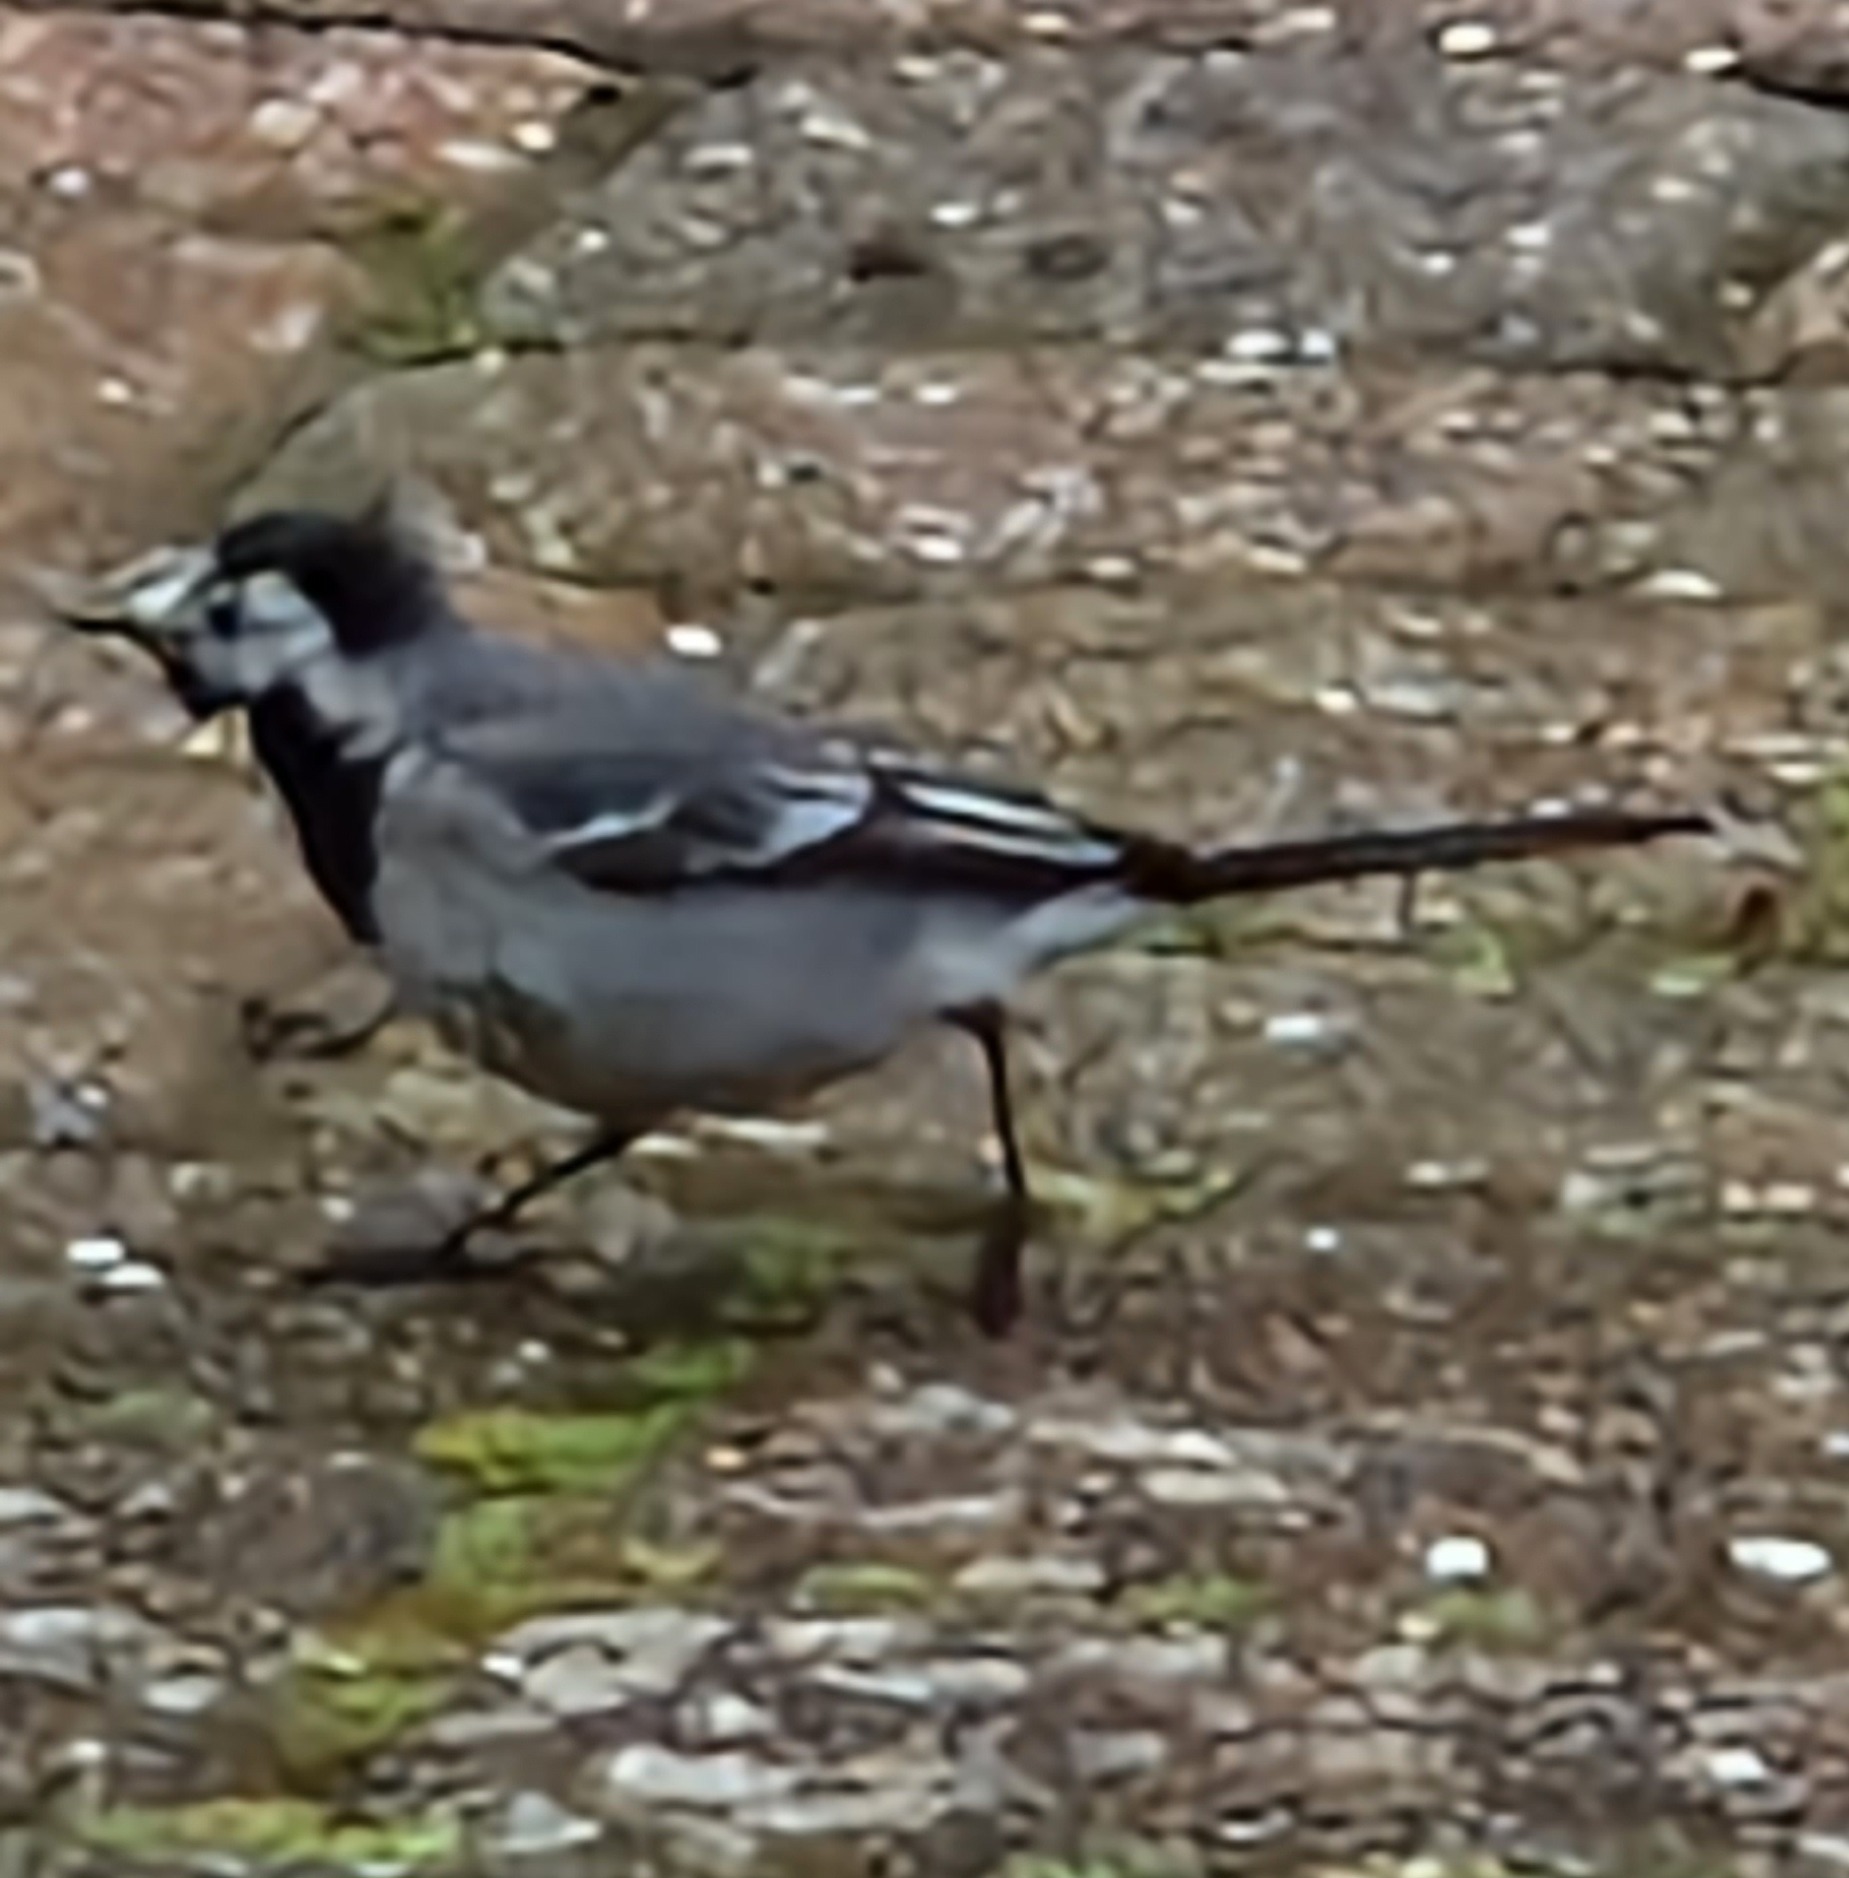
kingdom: Animalia
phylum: Chordata
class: Aves
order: Passeriformes
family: Motacillidae
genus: Motacilla
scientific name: Motacilla alba
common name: Hvid vipstjert
